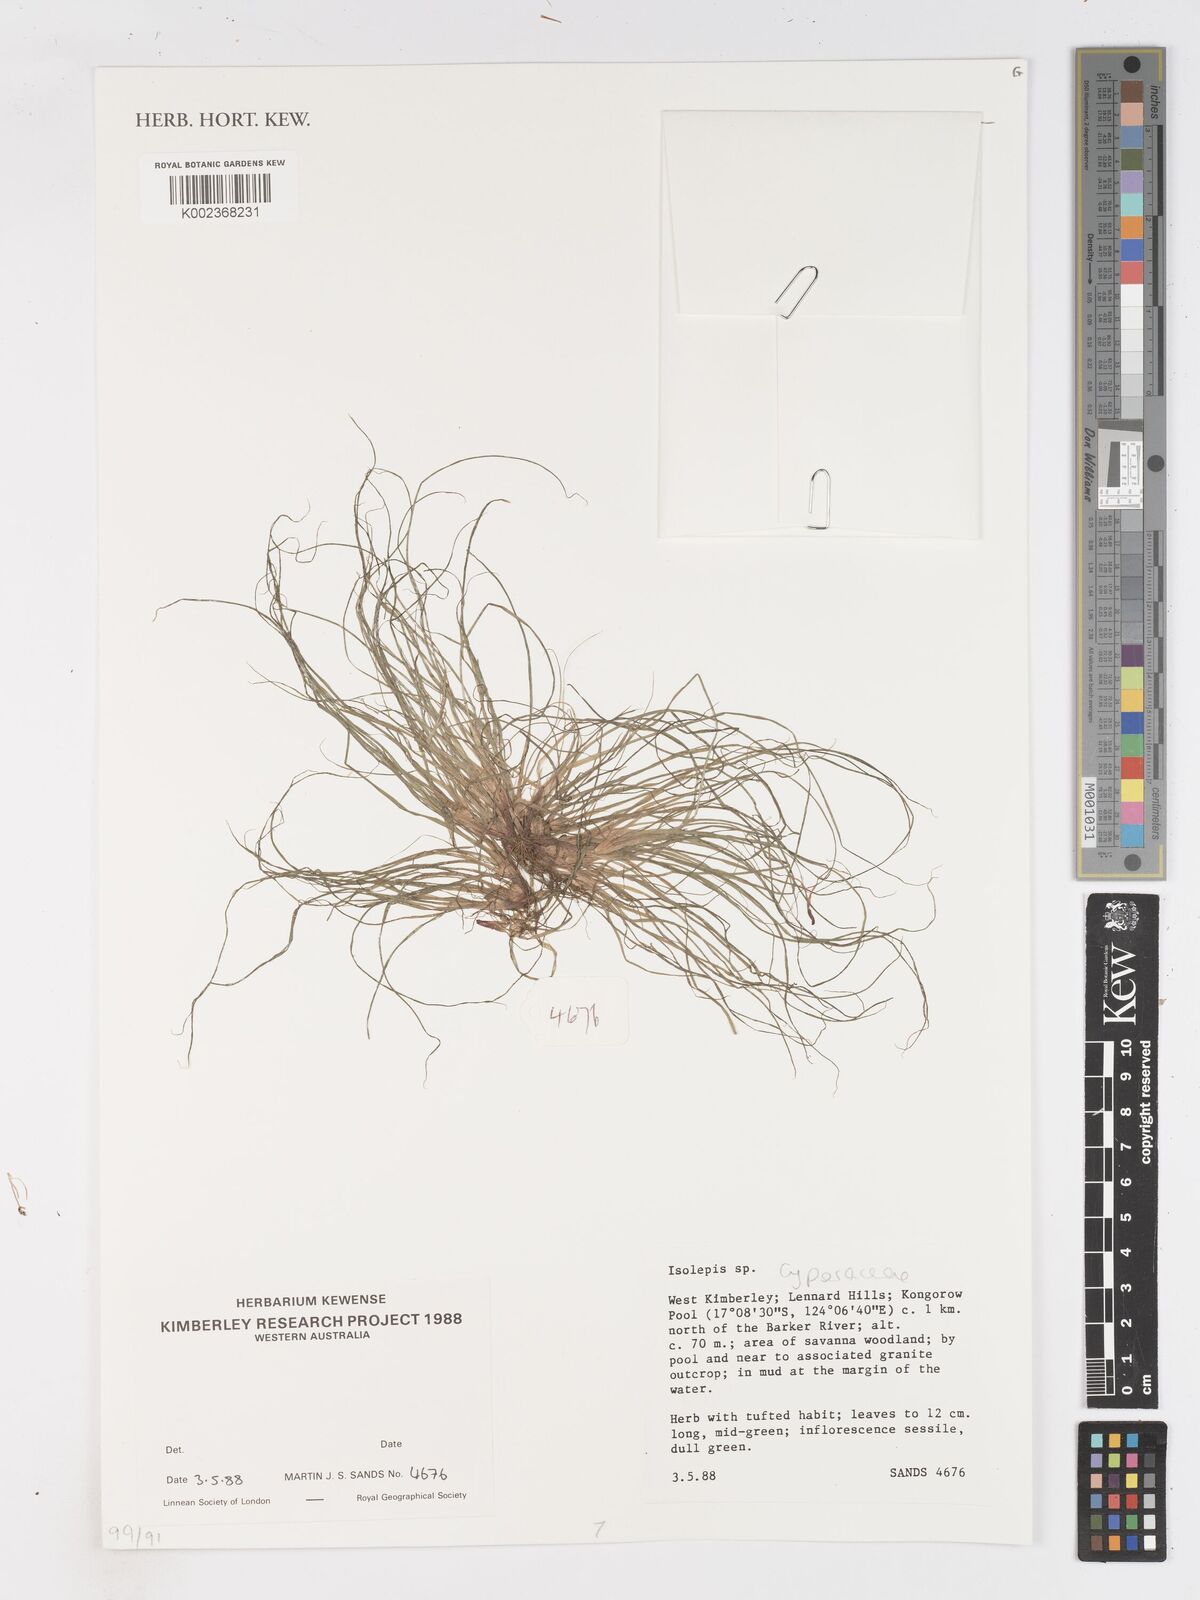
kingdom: Plantae
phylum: Tracheophyta
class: Liliopsida
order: Poales
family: Cyperaceae
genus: Isolepis
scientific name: Isolepis
